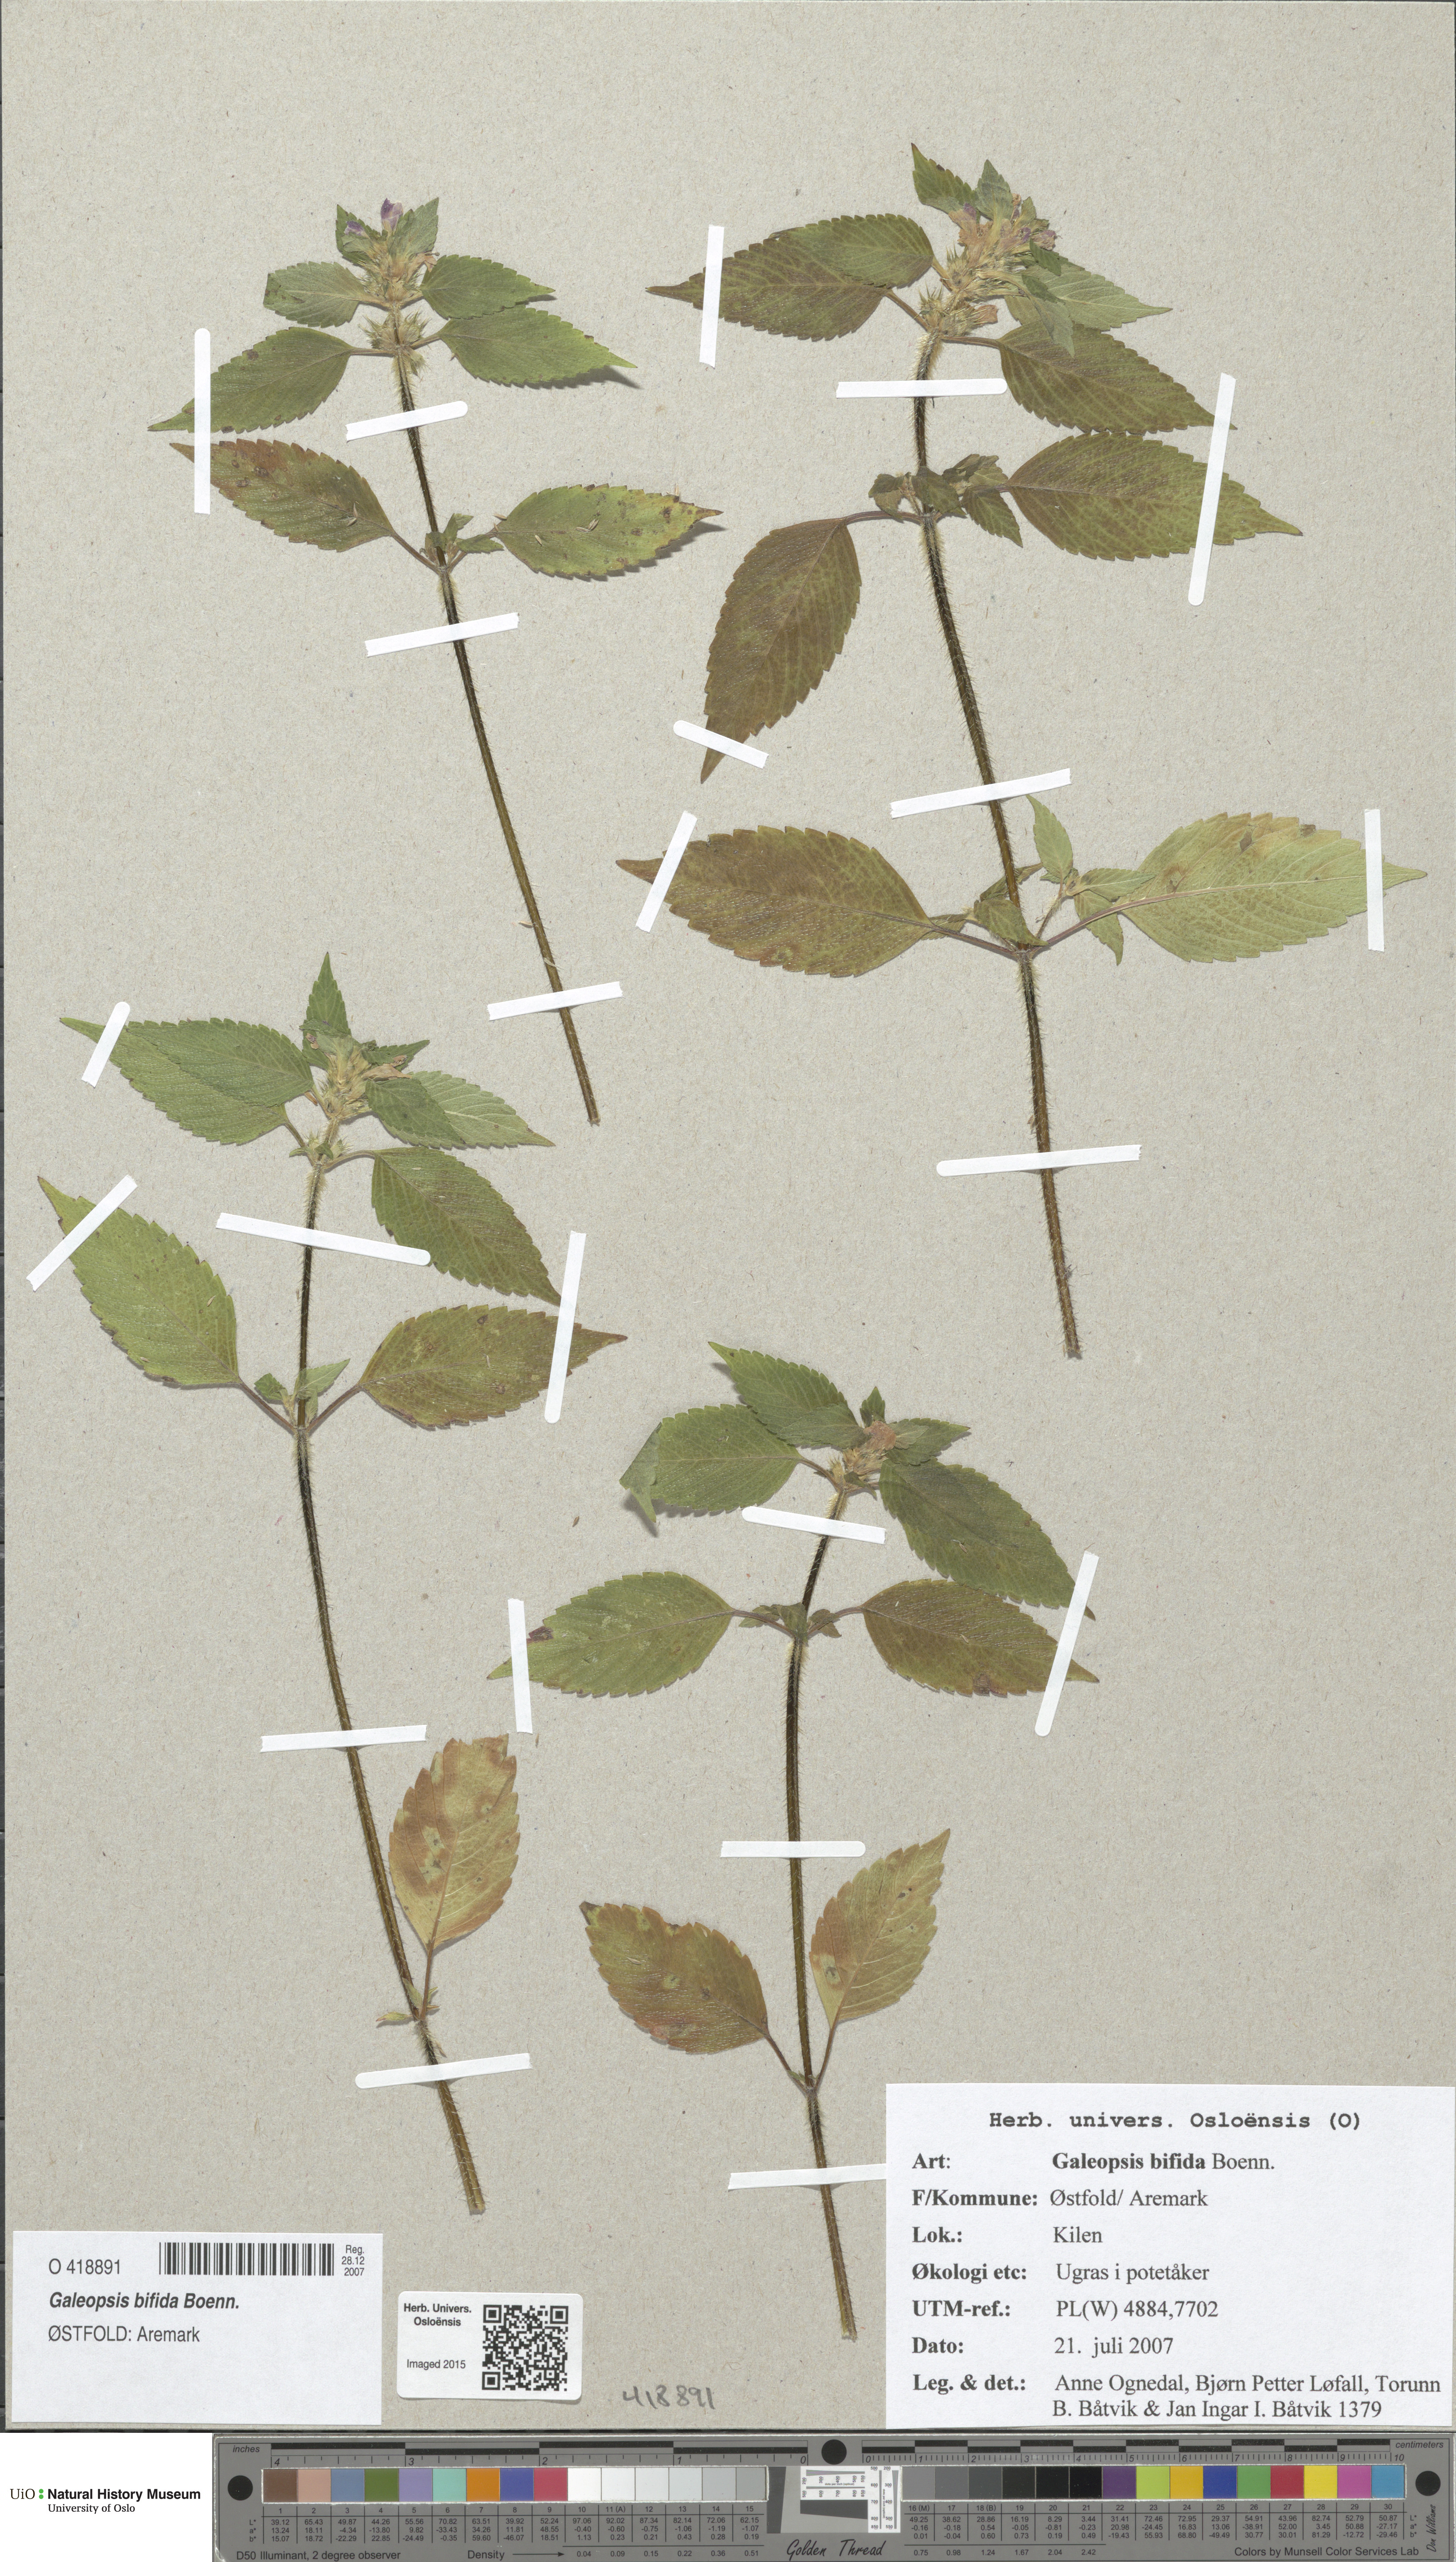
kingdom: Plantae
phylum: Tracheophyta
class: Magnoliopsida
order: Lamiales
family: Lamiaceae
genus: Galeopsis
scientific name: Galeopsis bifida
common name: Bifid hemp-nettle
